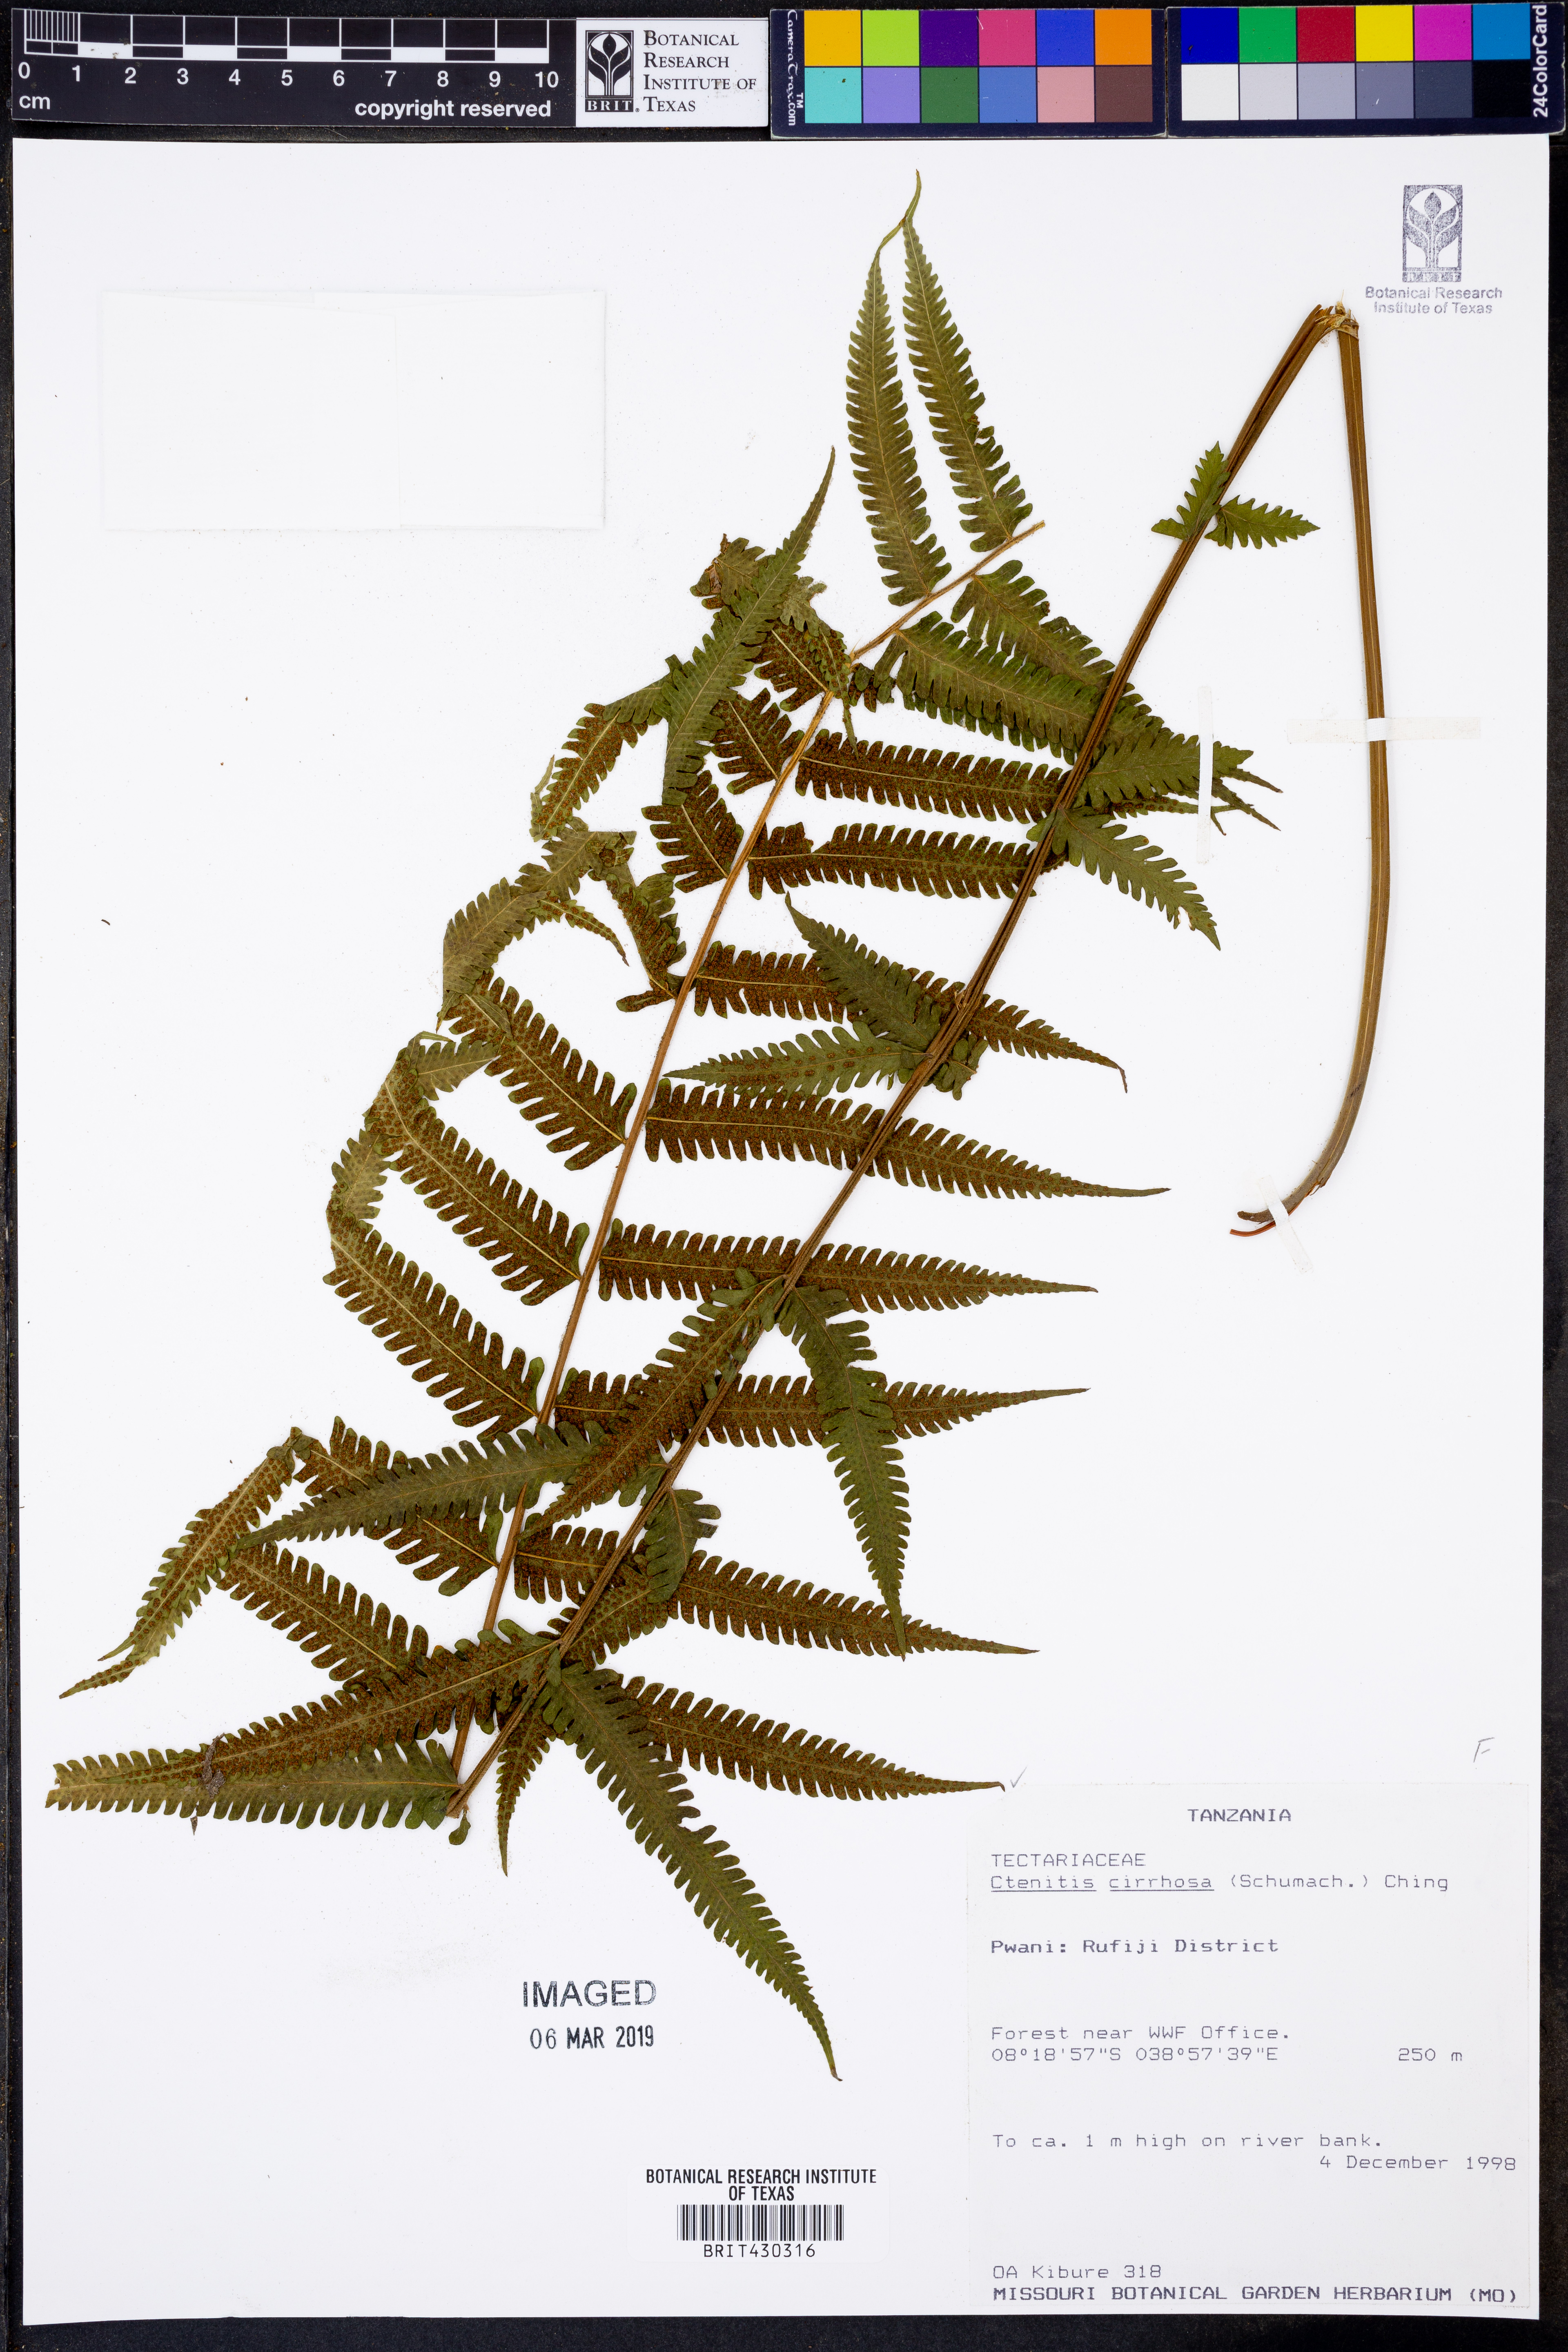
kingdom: Plantae
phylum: Tracheophyta
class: Polypodiopsida
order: Polypodiales
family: Dryopteridaceae
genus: Ctenitis
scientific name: Ctenitis cirrhosa
